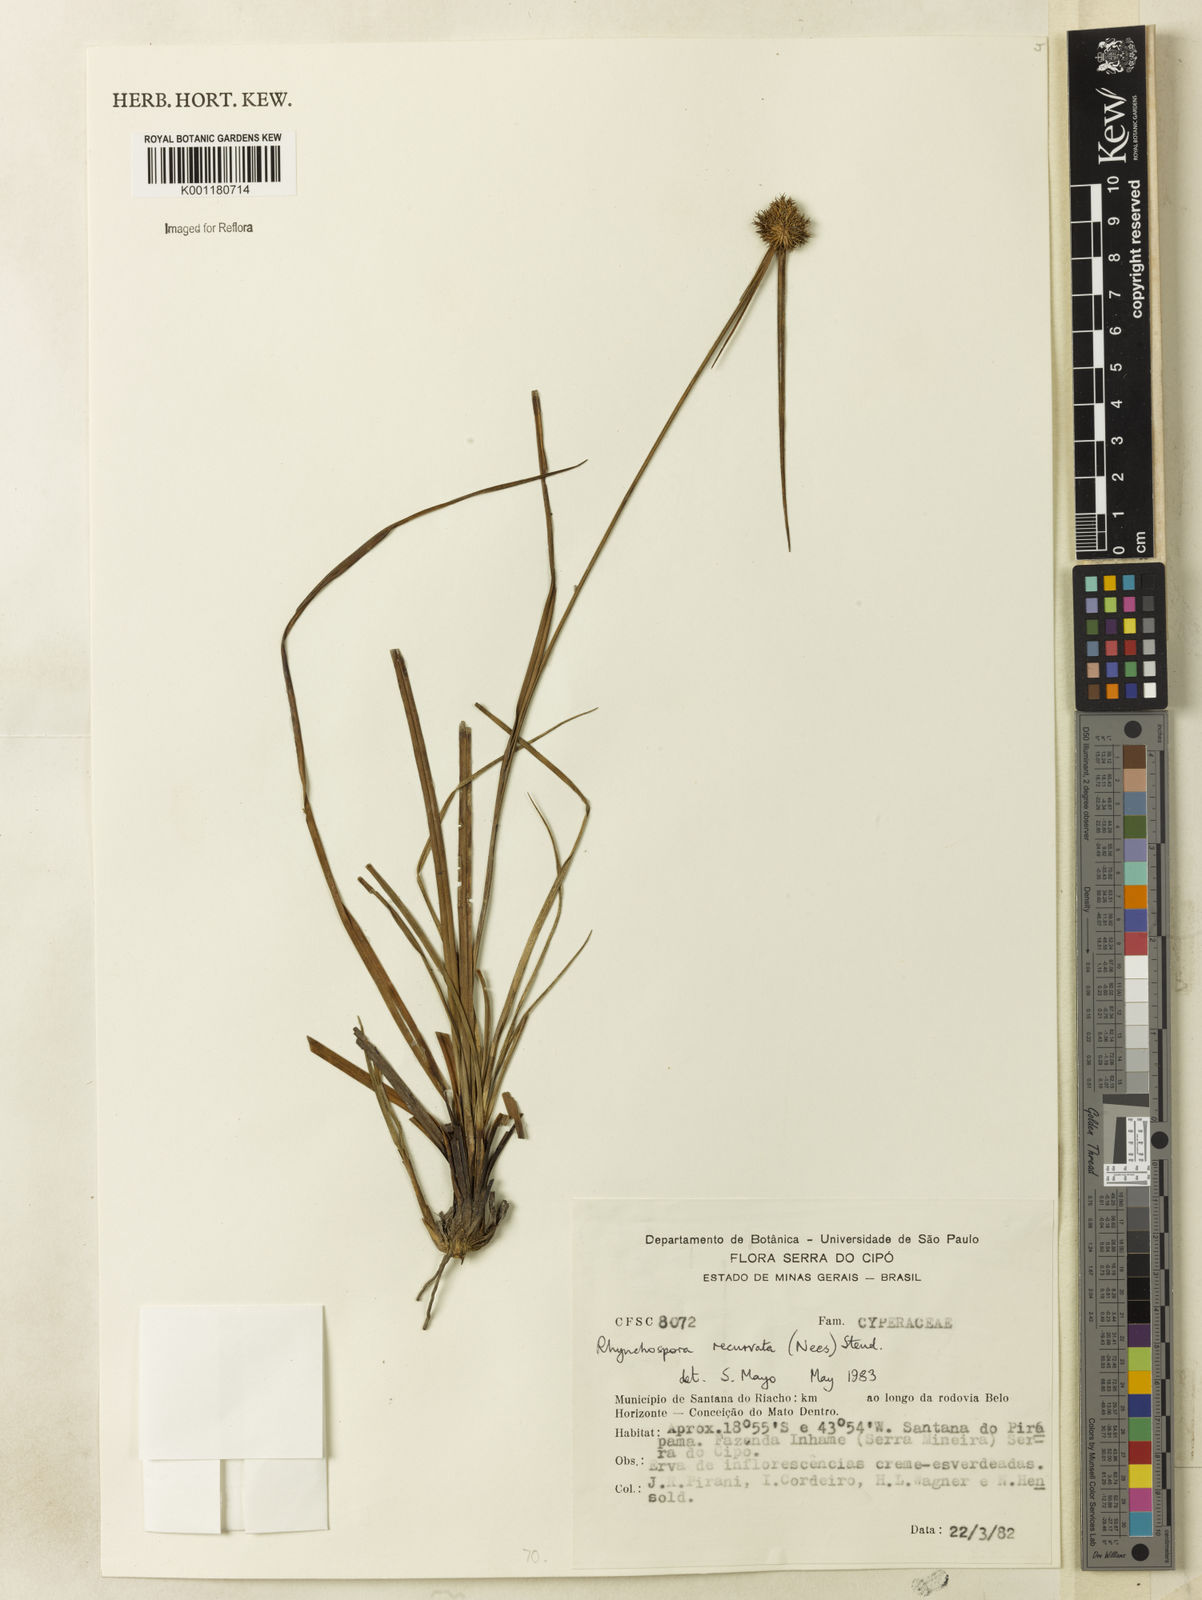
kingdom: Plantae
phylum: Tracheophyta
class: Liliopsida
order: Poales
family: Cyperaceae
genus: Rhynchospora
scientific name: Rhynchospora recurvata
